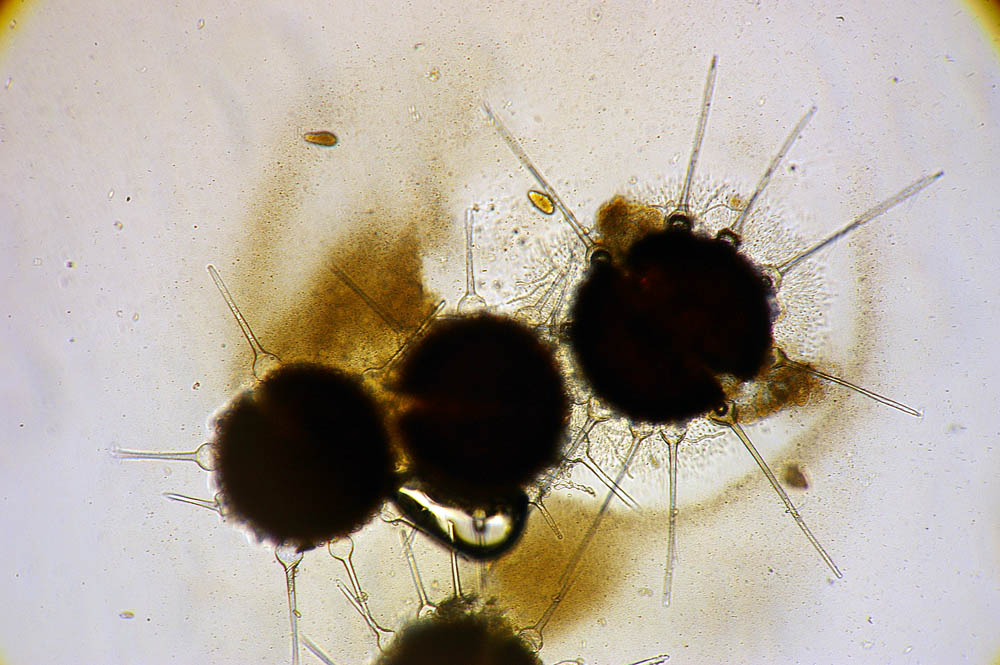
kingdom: Fungi
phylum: Ascomycota
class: Leotiomycetes
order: Helotiales
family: Erysiphaceae
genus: Phyllactinia
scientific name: Phyllactinia fraxini
